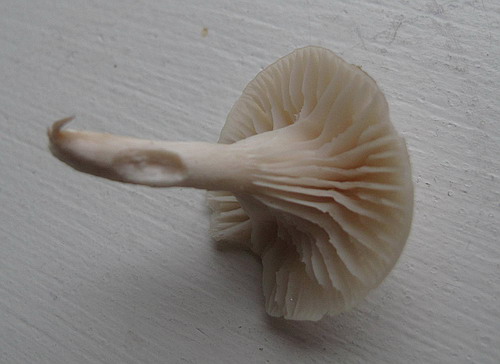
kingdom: Fungi
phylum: Basidiomycota
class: Agaricomycetes
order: Agaricales
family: Hygrophoraceae
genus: Cuphophyllus
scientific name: Cuphophyllus virgineus
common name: snehvid vokshat
